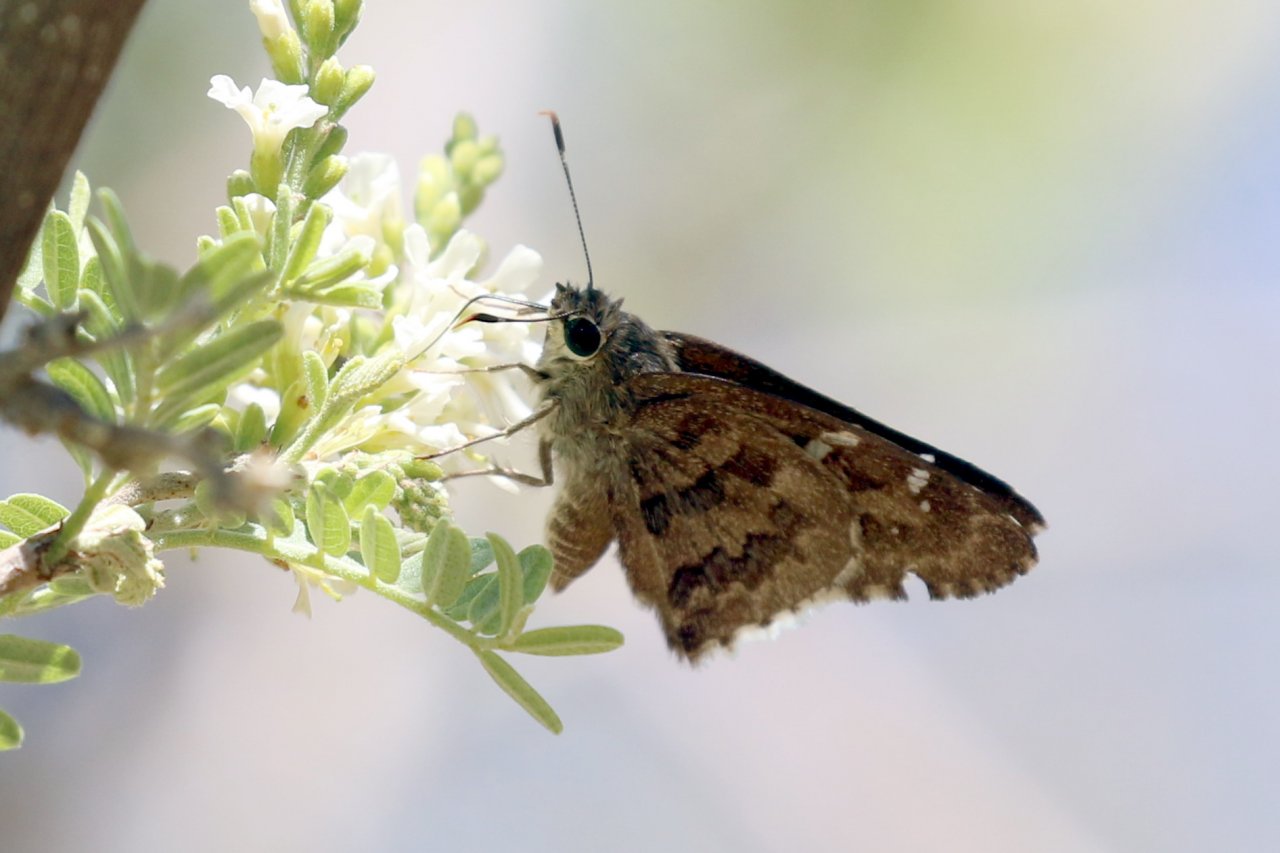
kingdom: Animalia
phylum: Arthropoda
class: Insecta
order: Lepidoptera
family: Hesperiidae
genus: Cogia
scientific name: Cogia hippalus
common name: Acacia Skipper
